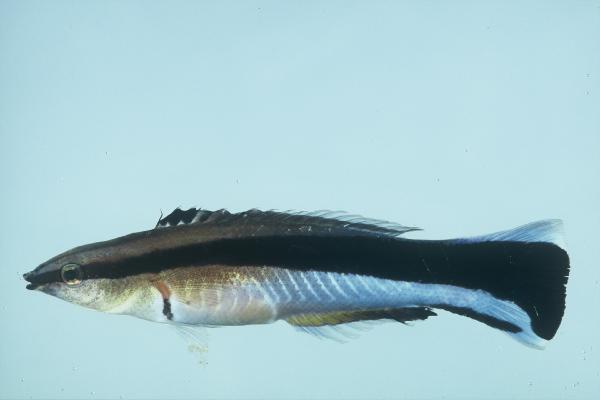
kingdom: Animalia
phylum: Chordata
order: Perciformes
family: Labridae
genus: Labroides
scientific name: Labroides dimidiatus
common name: Blue diesel wrasse
